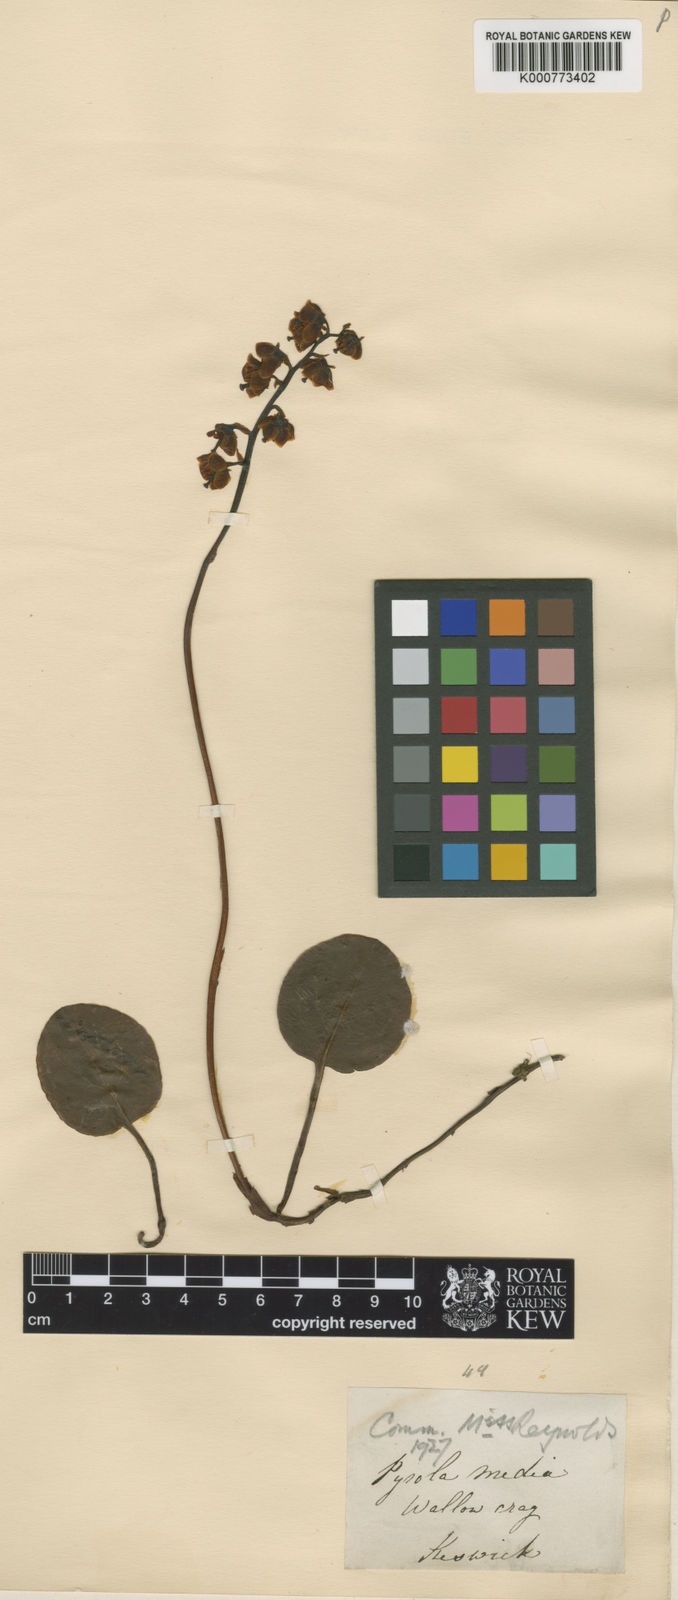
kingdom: Plantae
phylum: Tracheophyta
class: Magnoliopsida
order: Ericales
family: Ericaceae
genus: Pyrola
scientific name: Pyrola media
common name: Intermediate wintergreen
